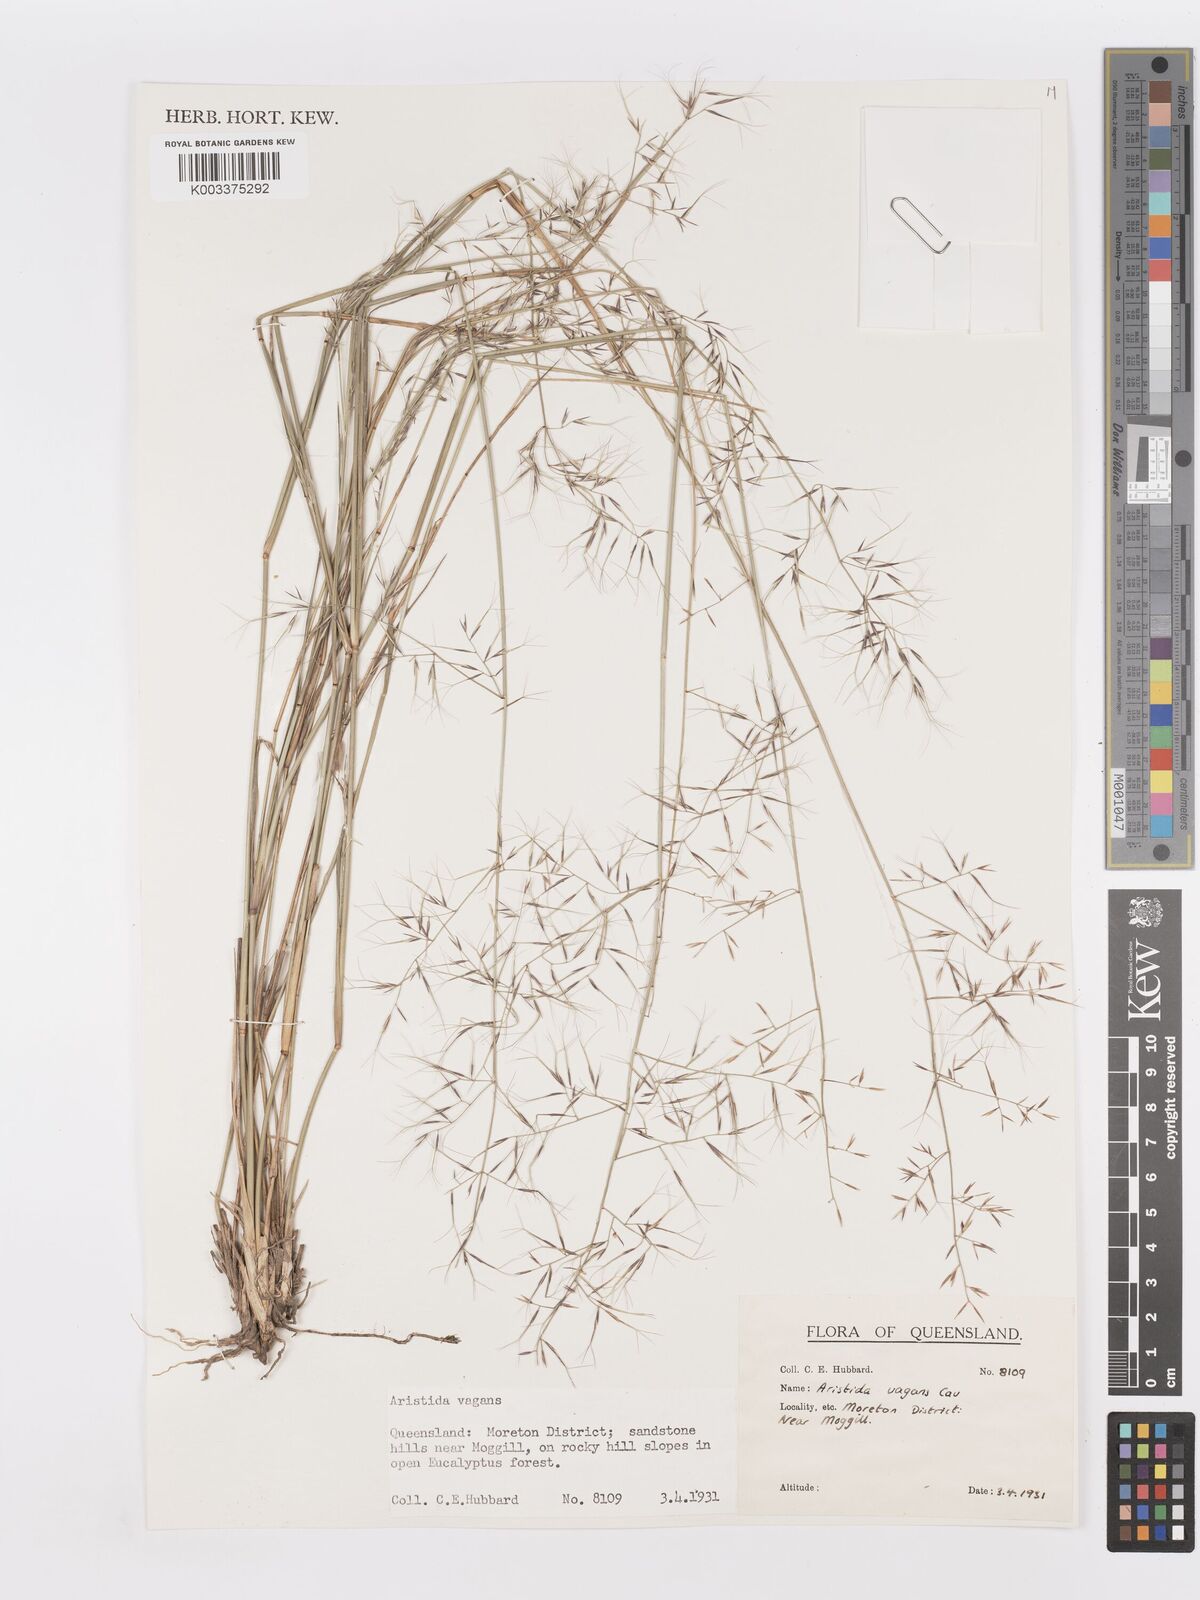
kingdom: Plantae
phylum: Tracheophyta
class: Liliopsida
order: Poales
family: Poaceae
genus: Aristida
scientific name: Aristida vagans
